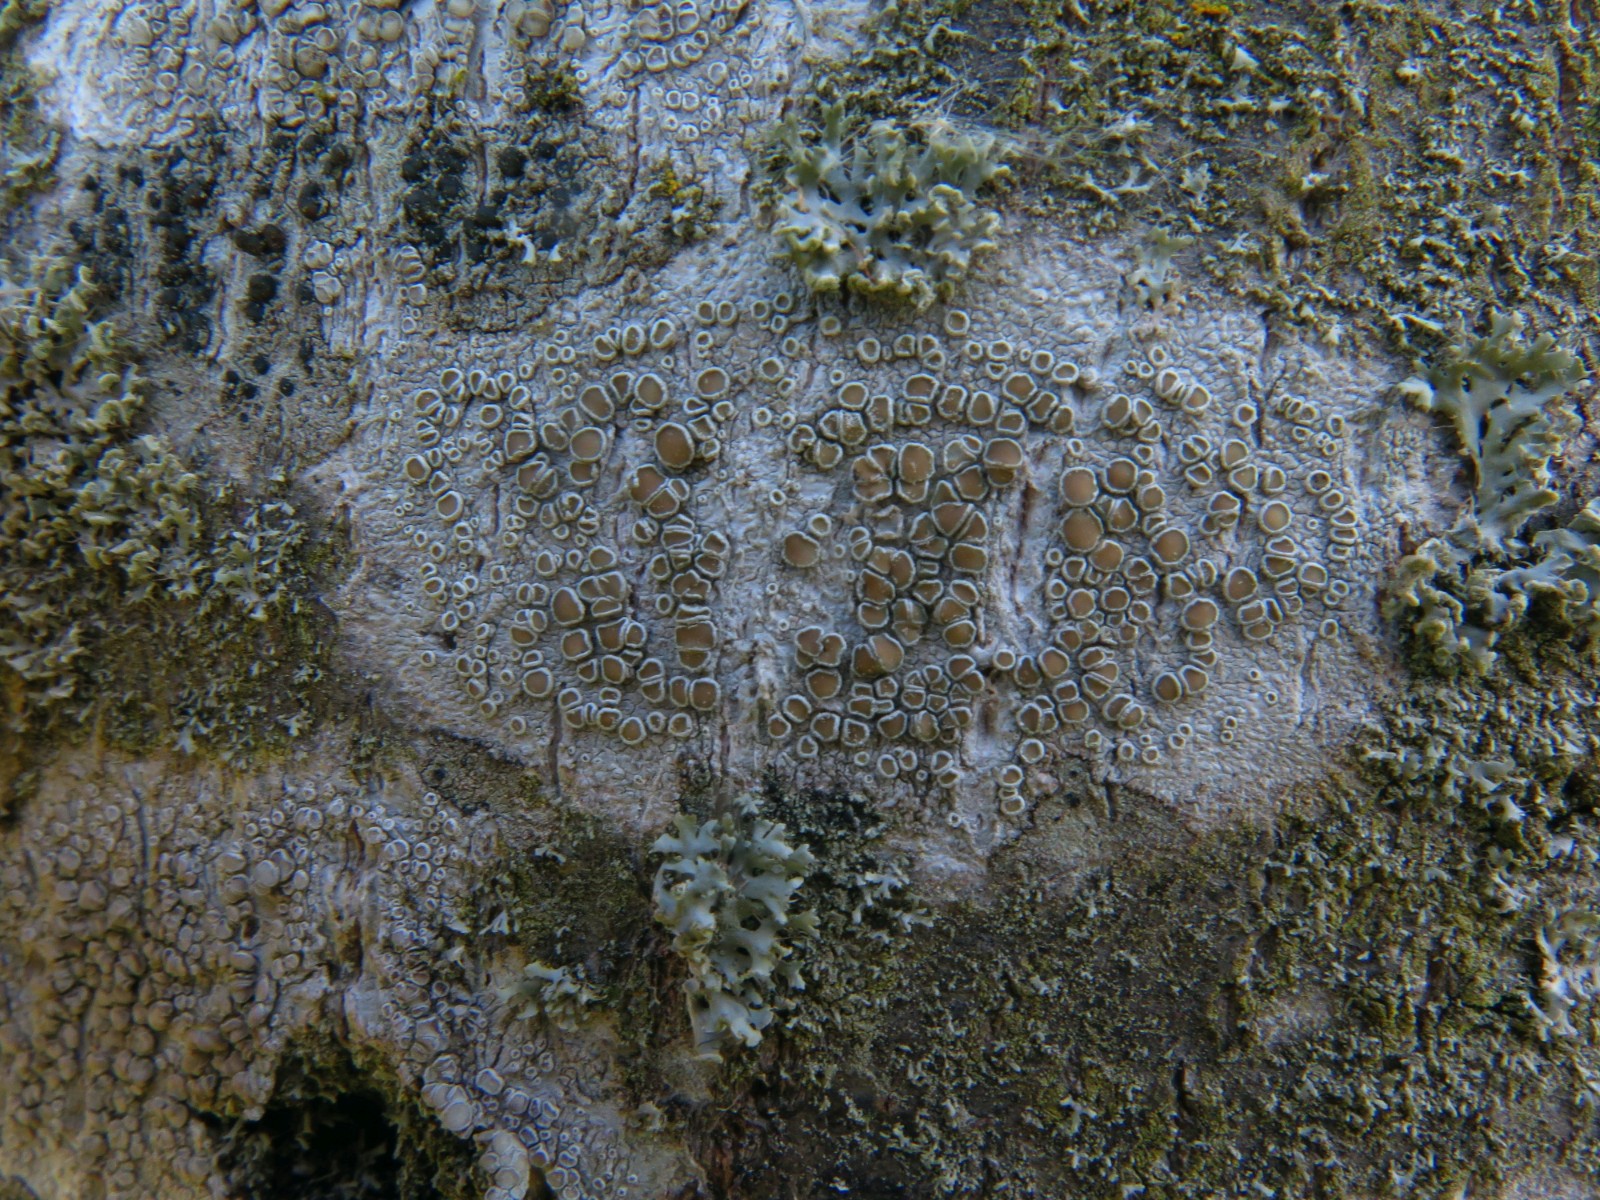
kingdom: Fungi
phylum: Ascomycota
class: Lecanoromycetes
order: Lecanorales
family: Lecanoraceae
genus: Lecanora
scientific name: Lecanora chlarotera
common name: brun kantskivelav
